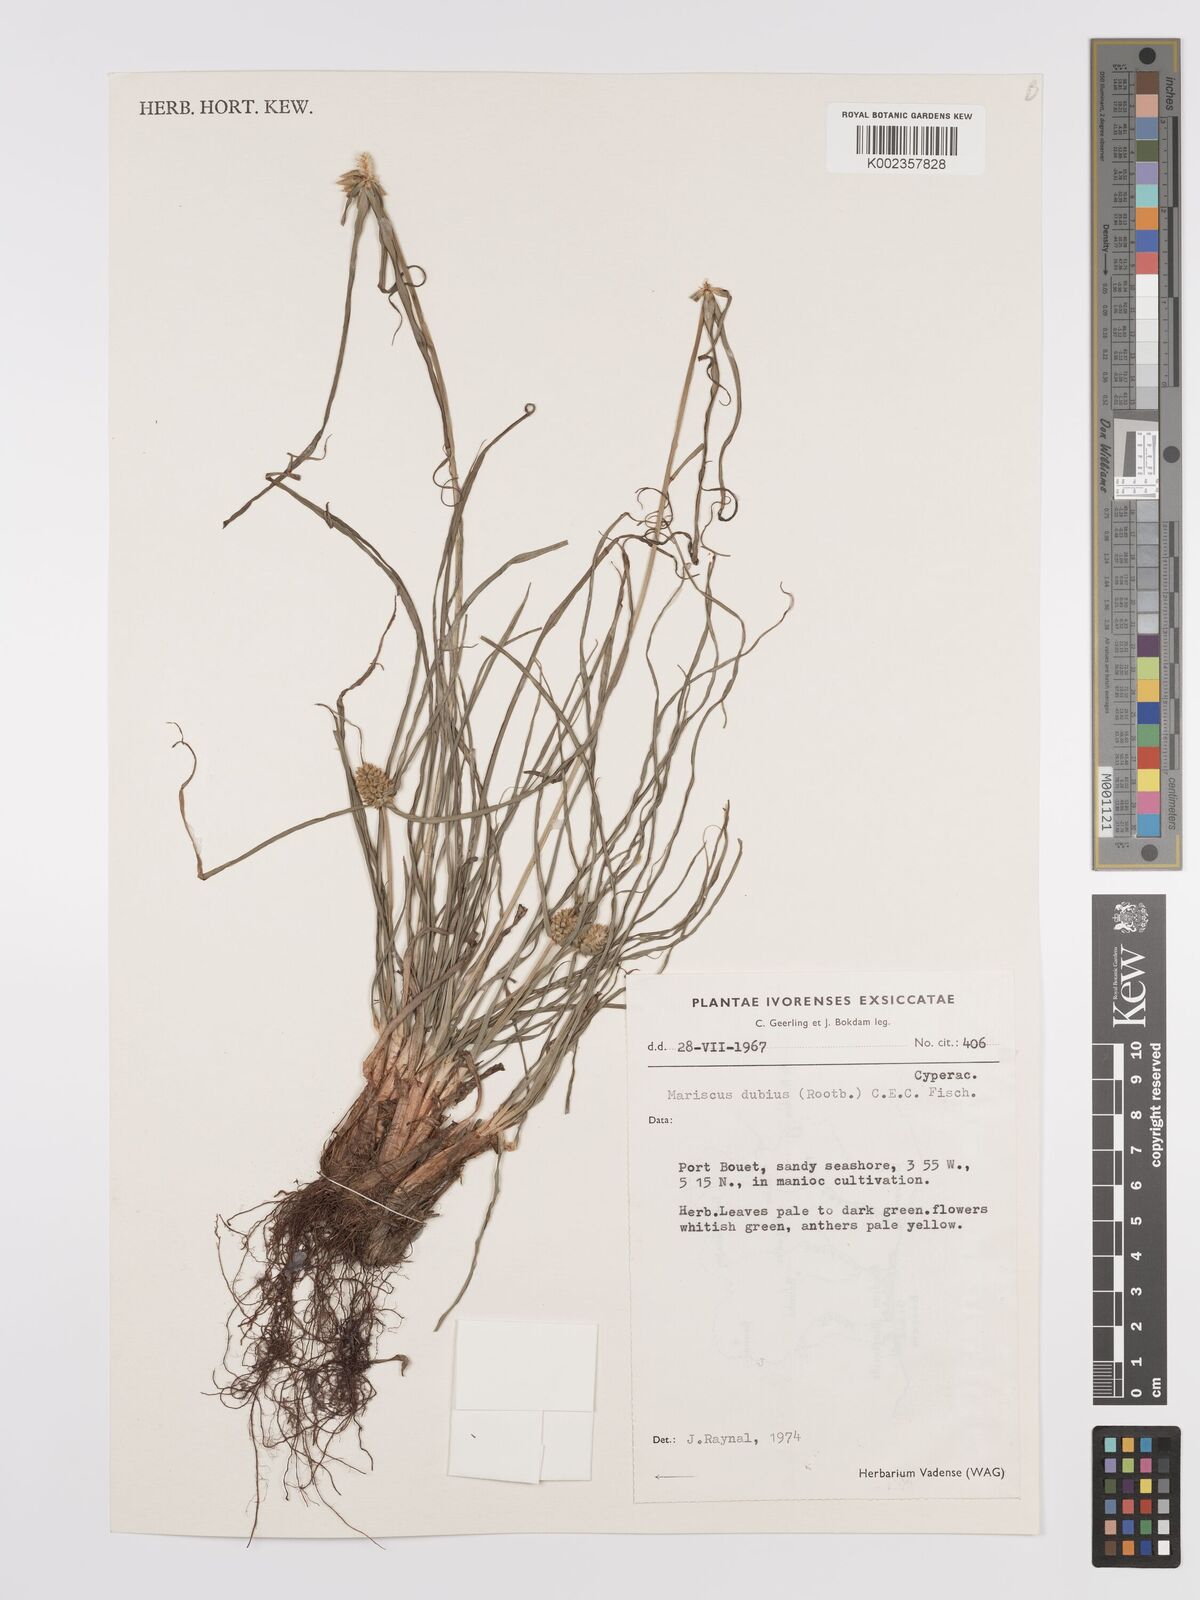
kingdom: Plantae
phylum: Tracheophyta
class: Liliopsida
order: Poales
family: Cyperaceae
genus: Cyperus
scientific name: Cyperus dubius
